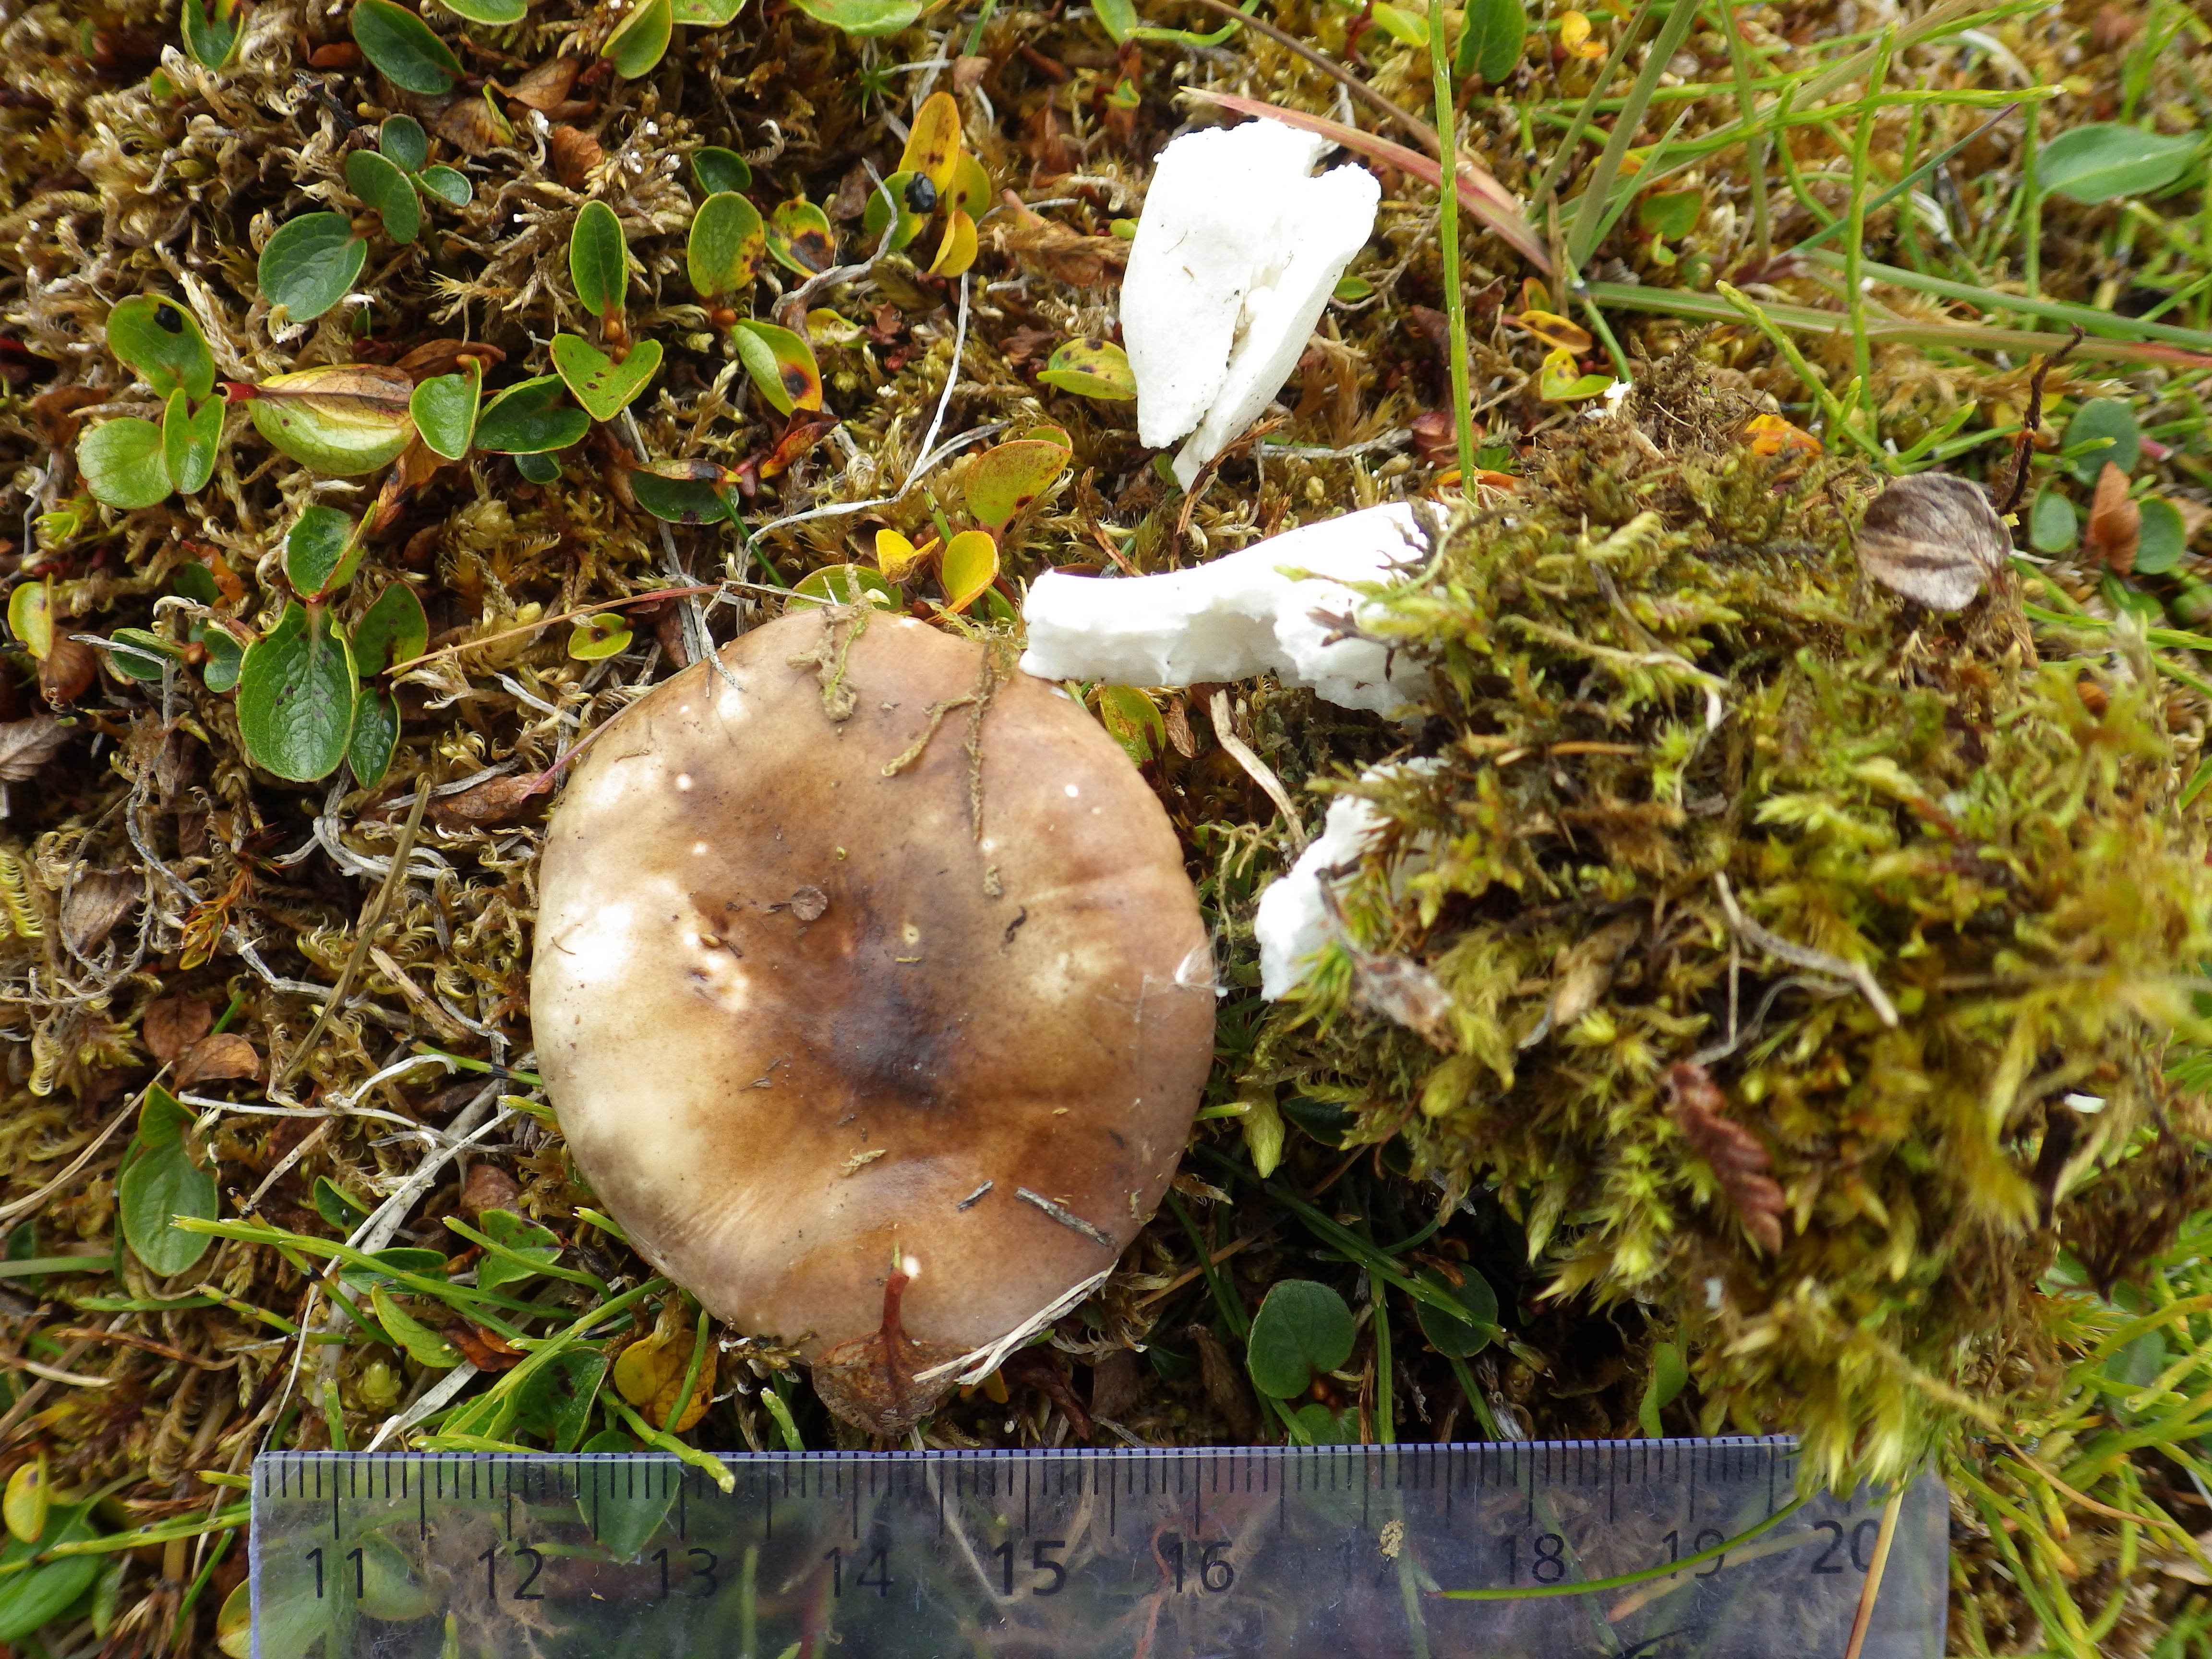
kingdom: Fungi
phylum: Basidiomycota
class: Agaricomycetes
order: Russulales
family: Russulaceae
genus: Russula
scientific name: Russula
